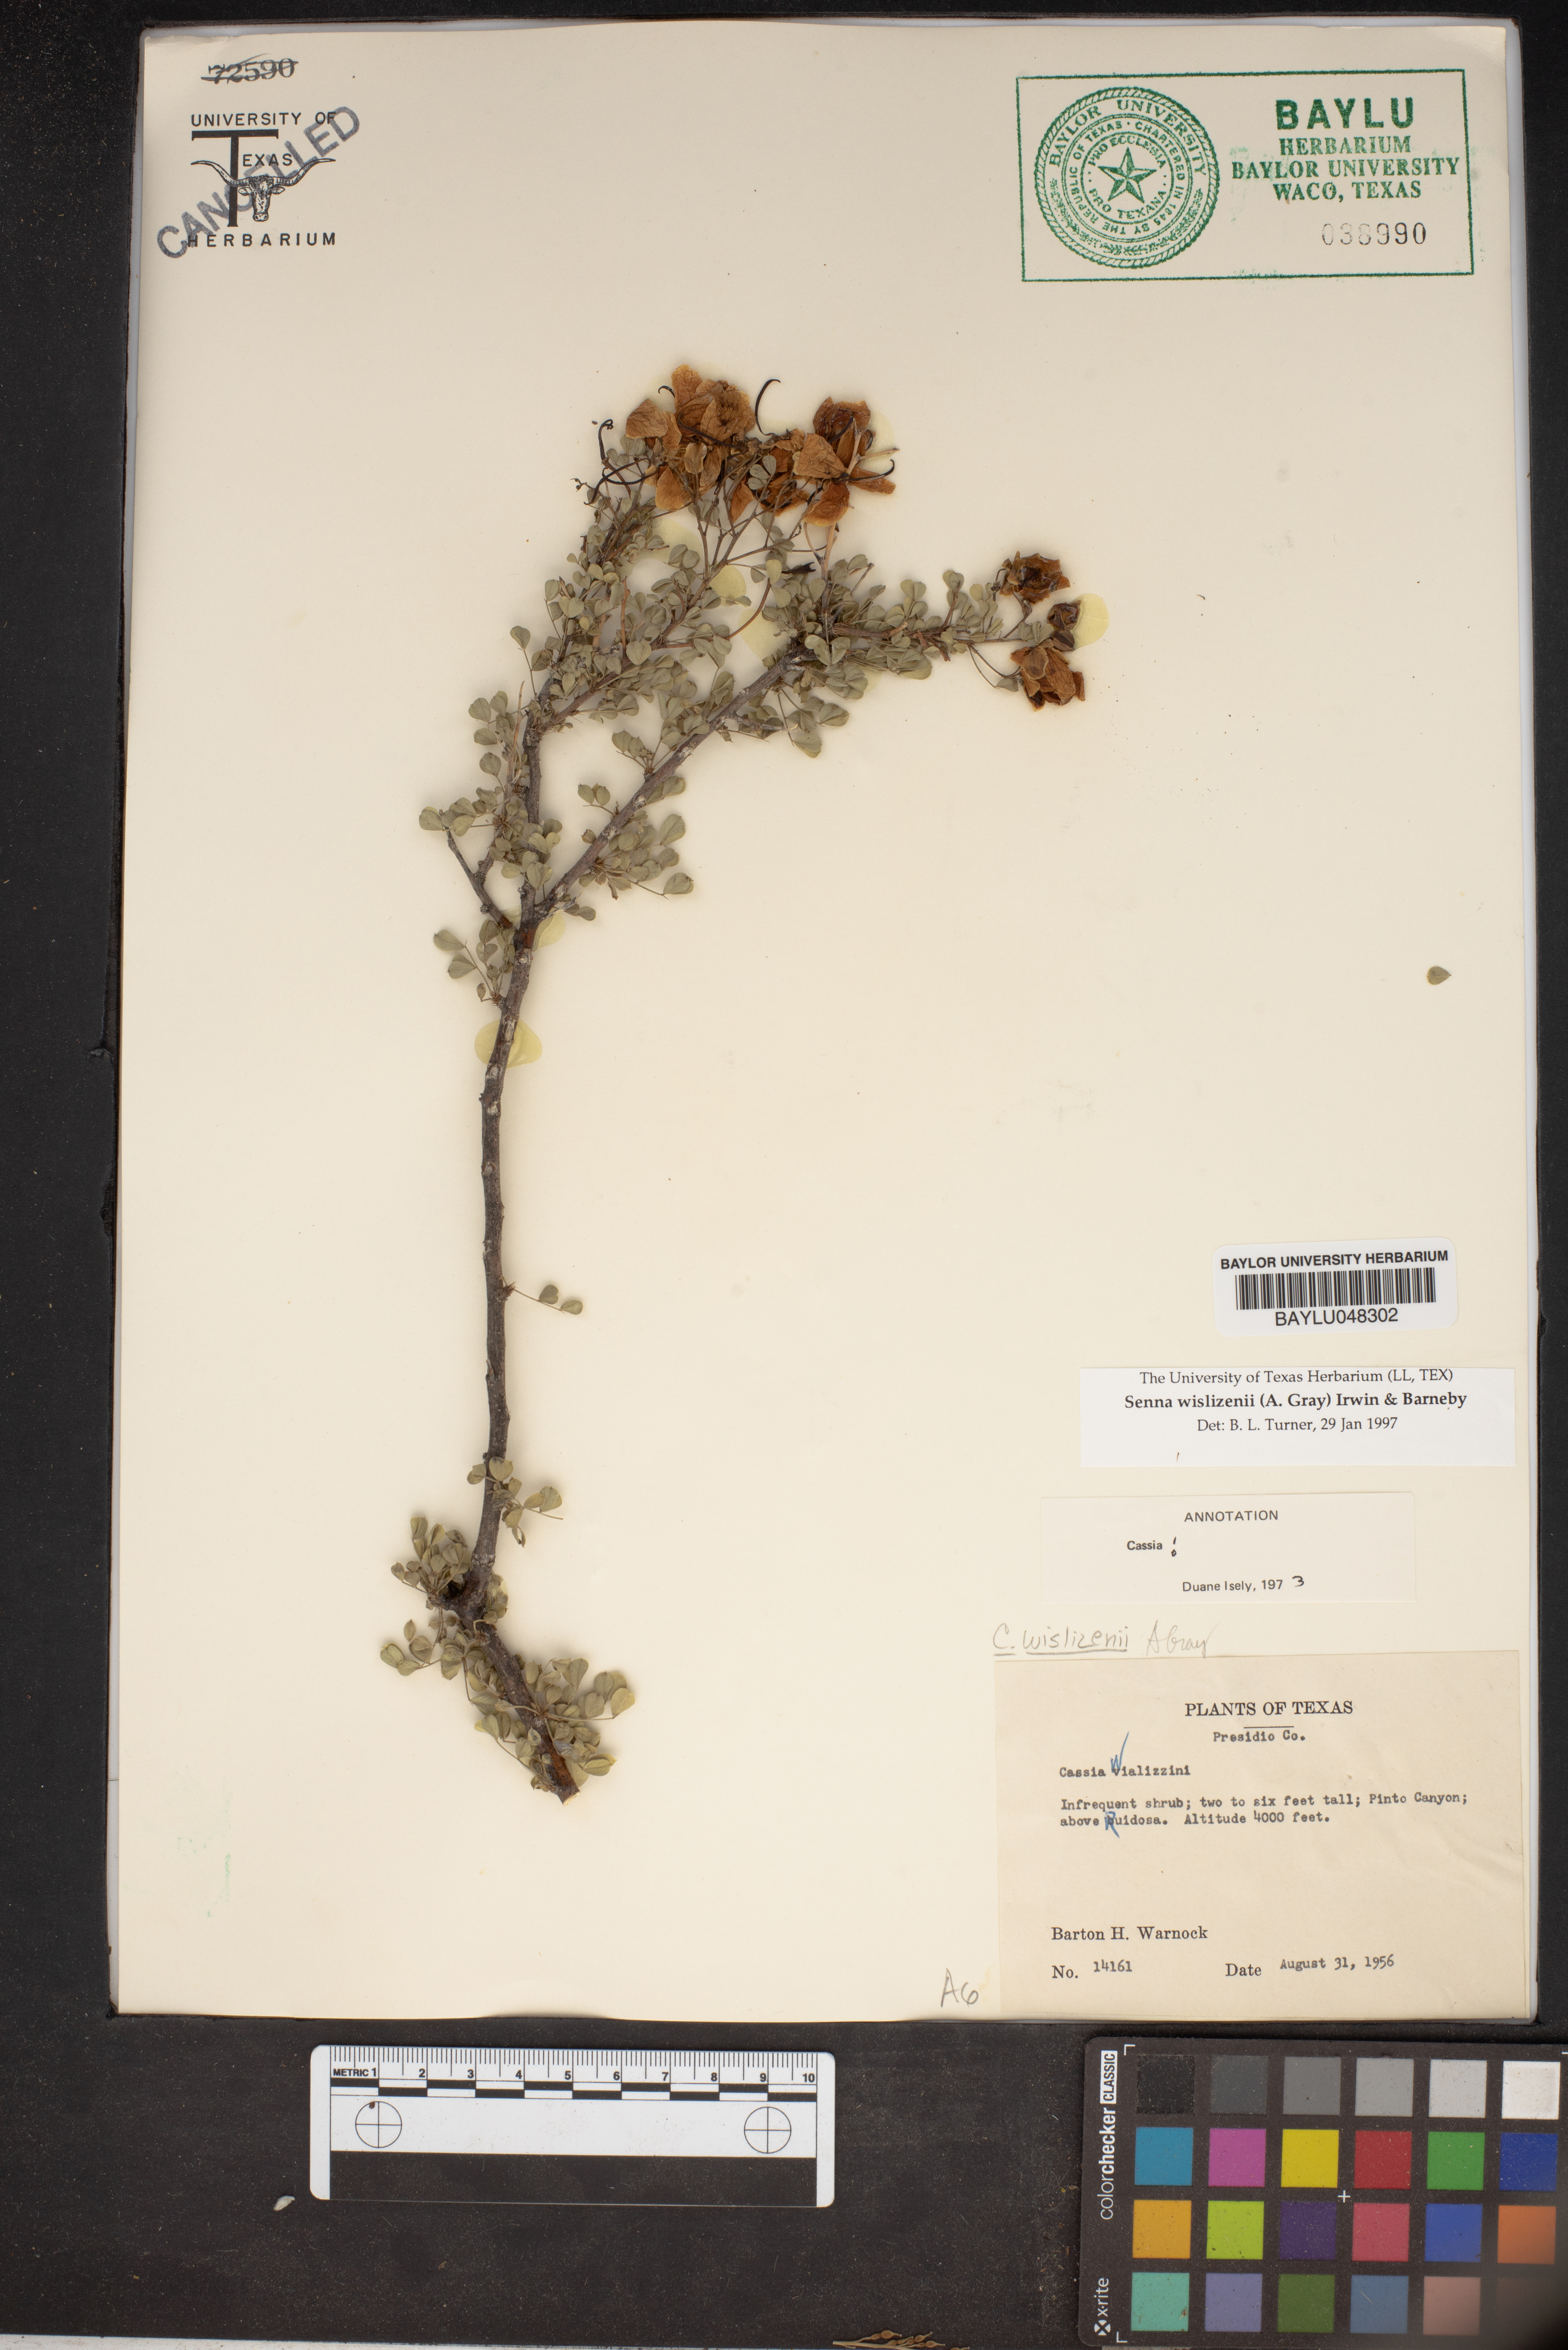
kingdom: Plantae
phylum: Tracheophyta
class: Magnoliopsida
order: Fabales
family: Fabaceae
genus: Senna
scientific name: Senna wislizeni
